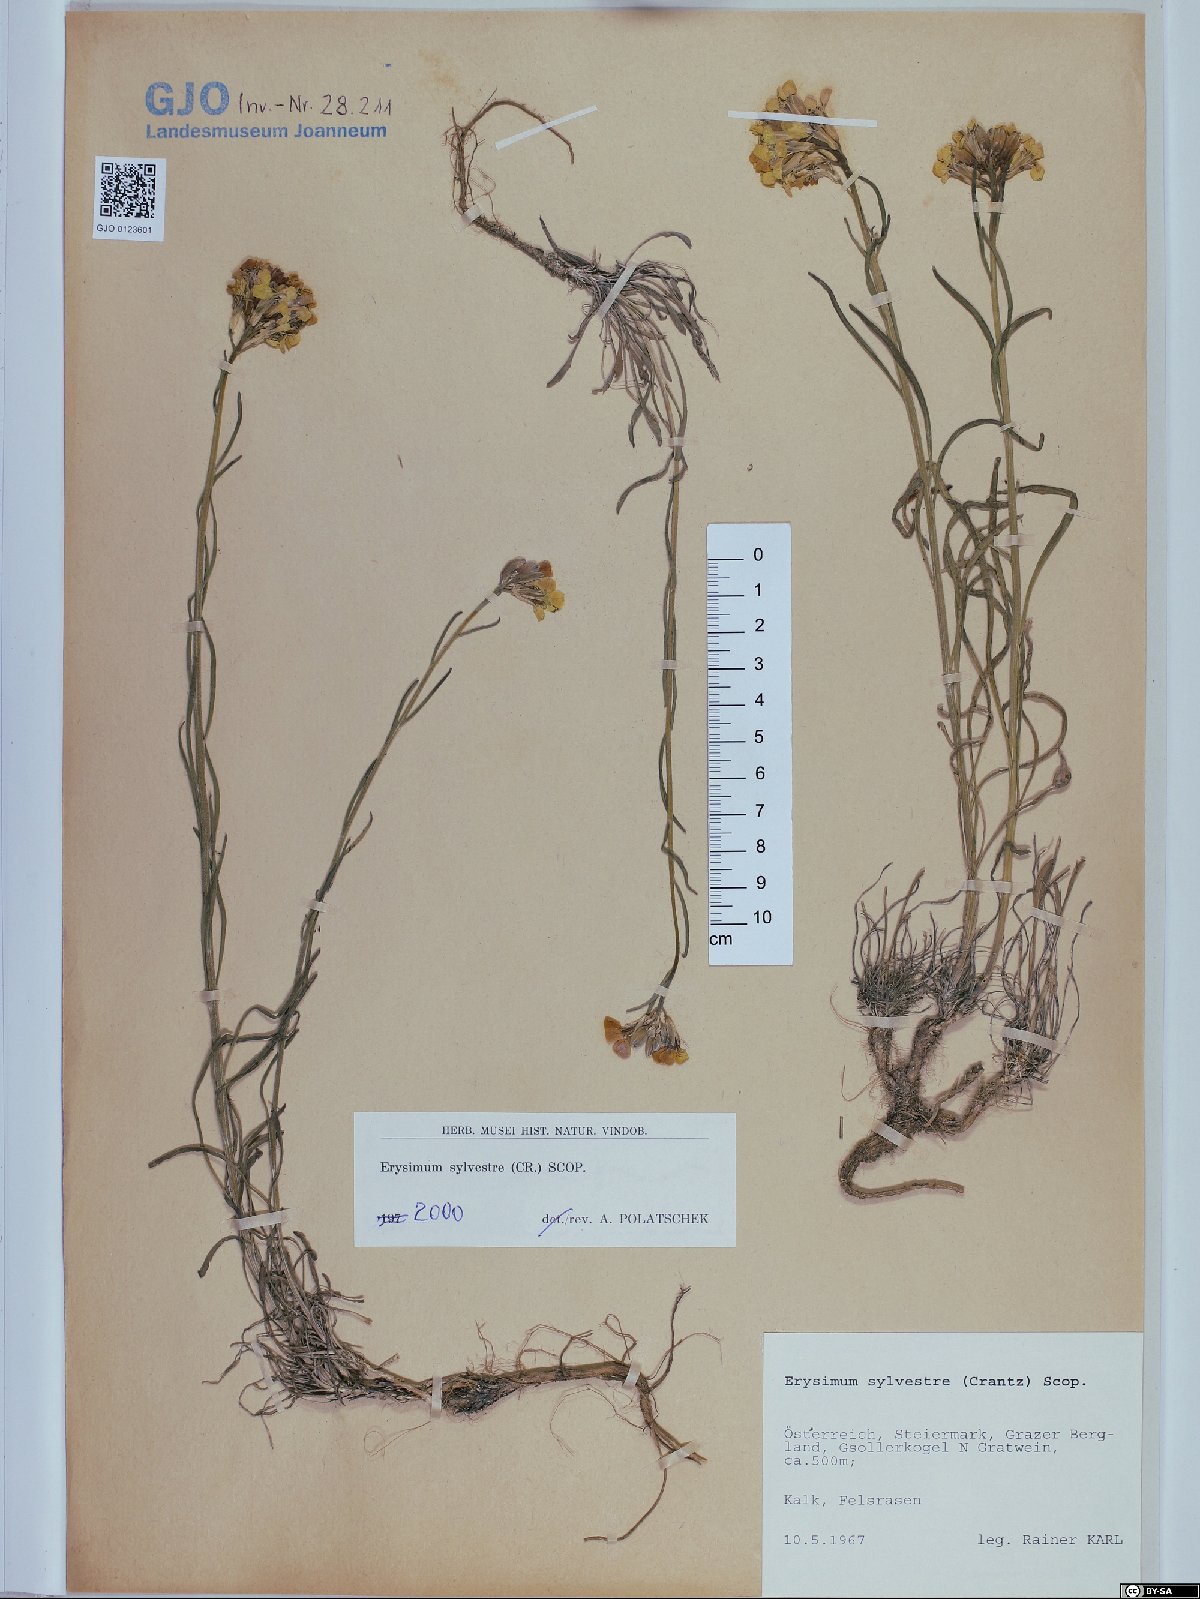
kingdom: Plantae
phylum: Tracheophyta
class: Magnoliopsida
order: Brassicales
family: Brassicaceae
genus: Erysimum
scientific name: Erysimum sylvestre
